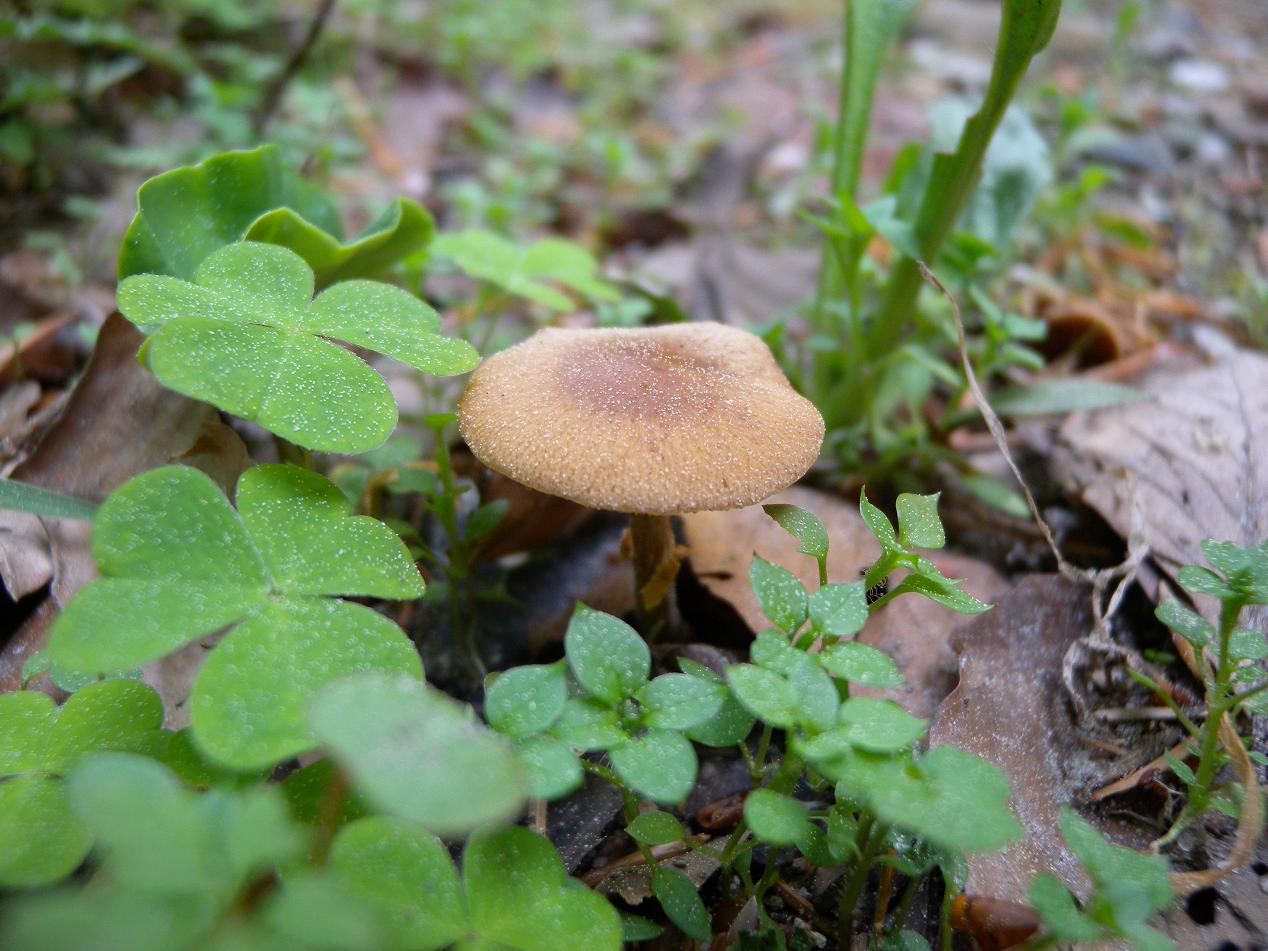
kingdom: Fungi
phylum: Basidiomycota
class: Agaricomycetes
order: Agaricales
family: Bolbitiaceae
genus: Conocybe
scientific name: Conocybe aporos
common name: tidlig dansehat
